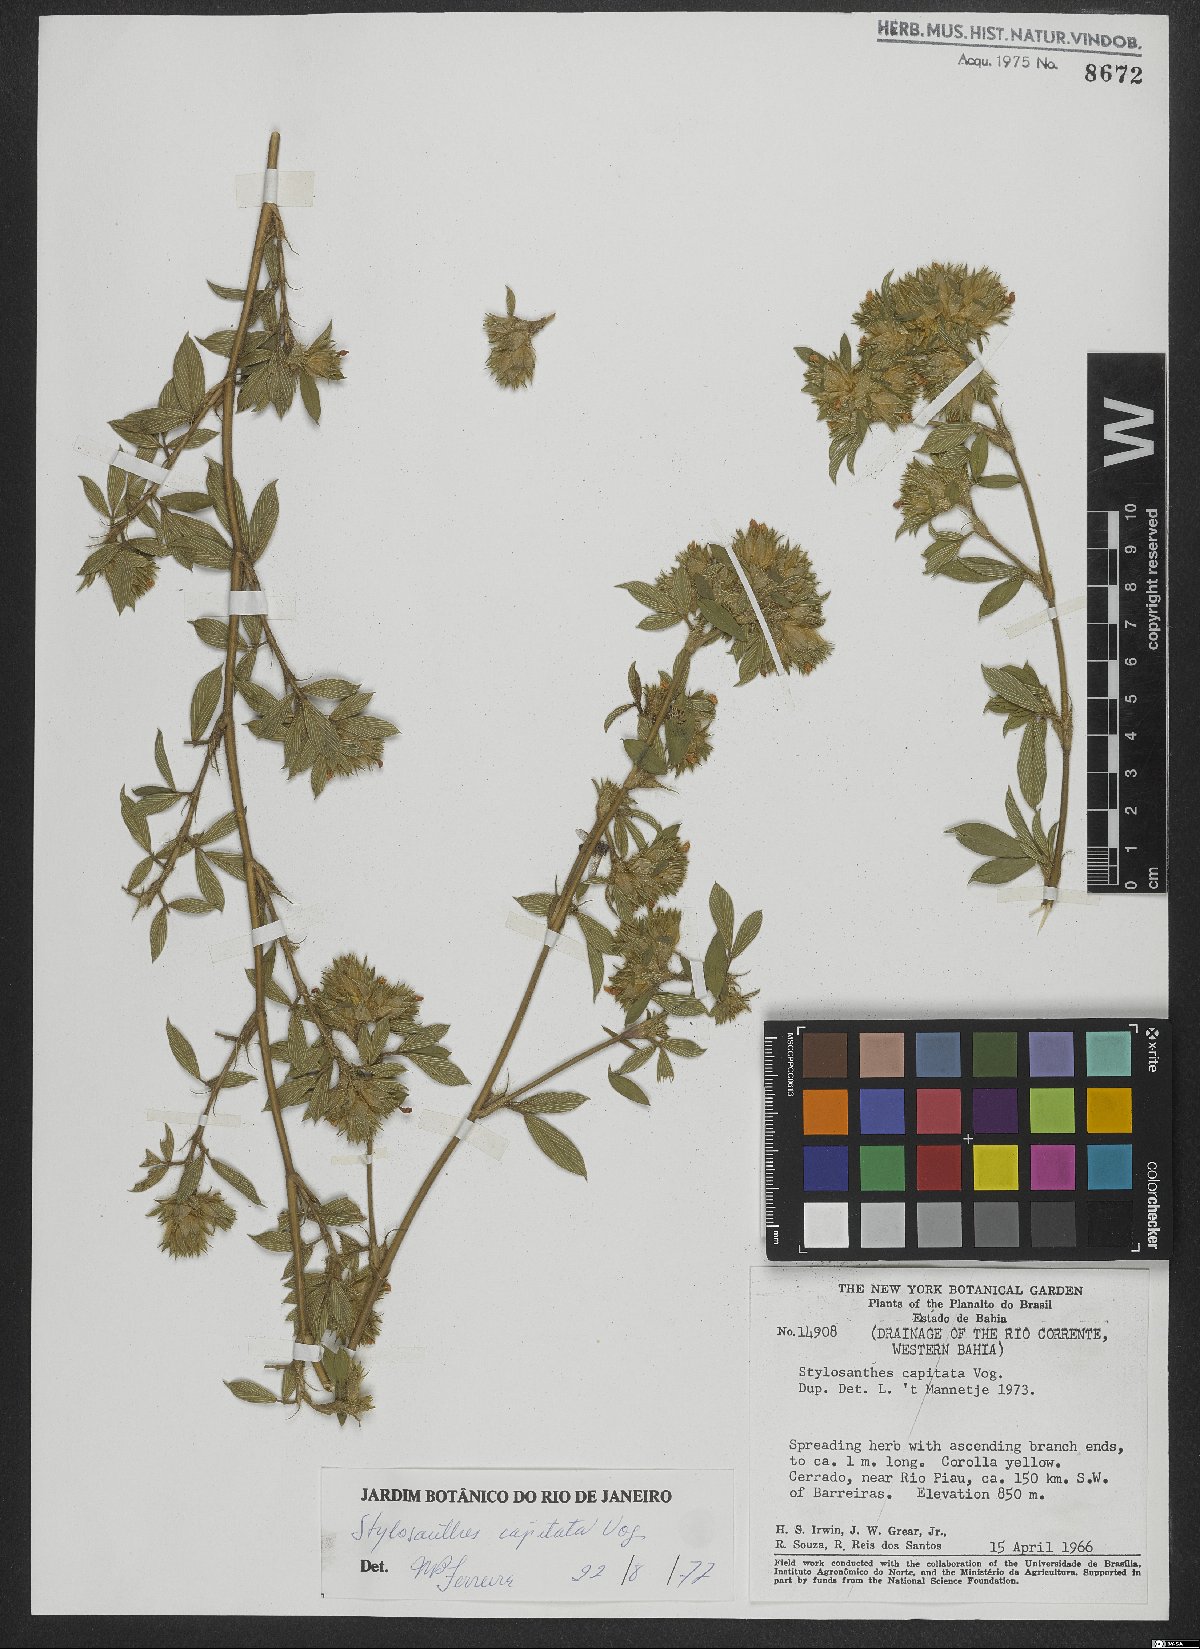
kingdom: Plantae
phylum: Tracheophyta
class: Magnoliopsida
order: Fabales
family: Fabaceae
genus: Stylosanthes
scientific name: Stylosanthes capitata
